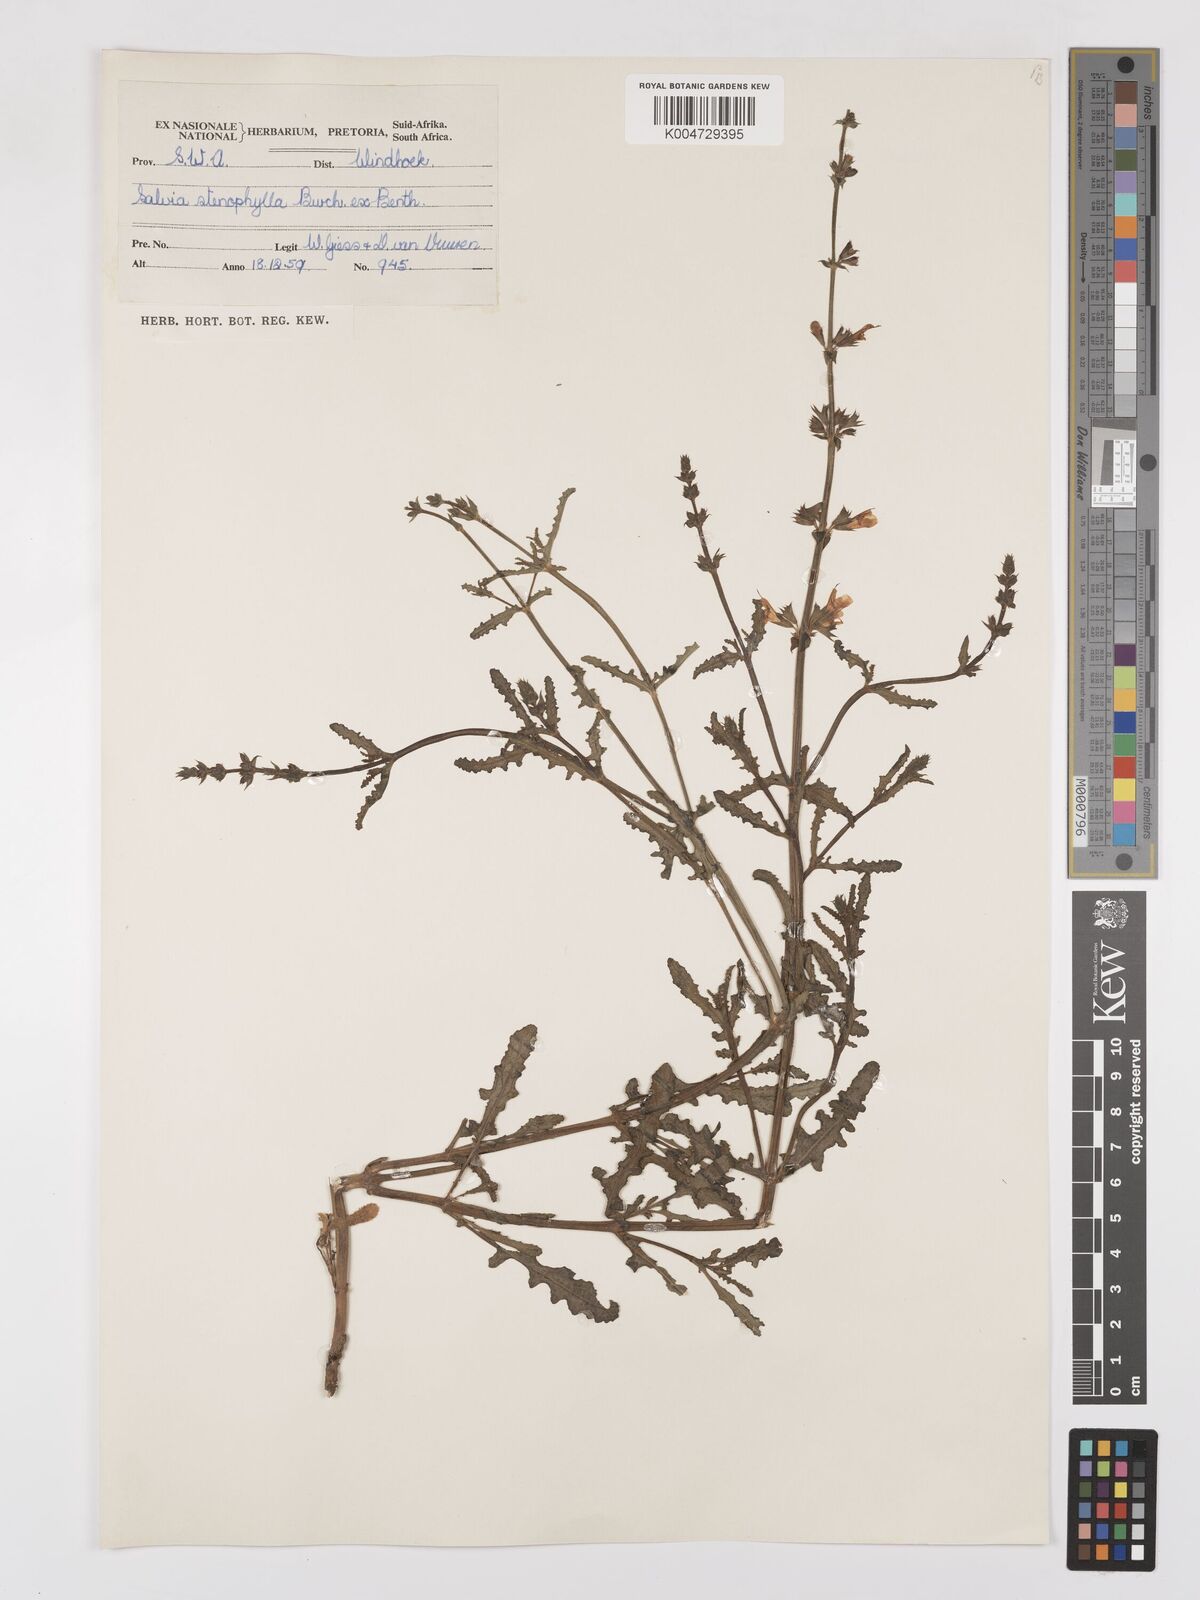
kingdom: Plantae
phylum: Tracheophyta
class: Magnoliopsida
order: Lamiales
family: Lamiaceae
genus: Salvia
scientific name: Salvia stenophylla
